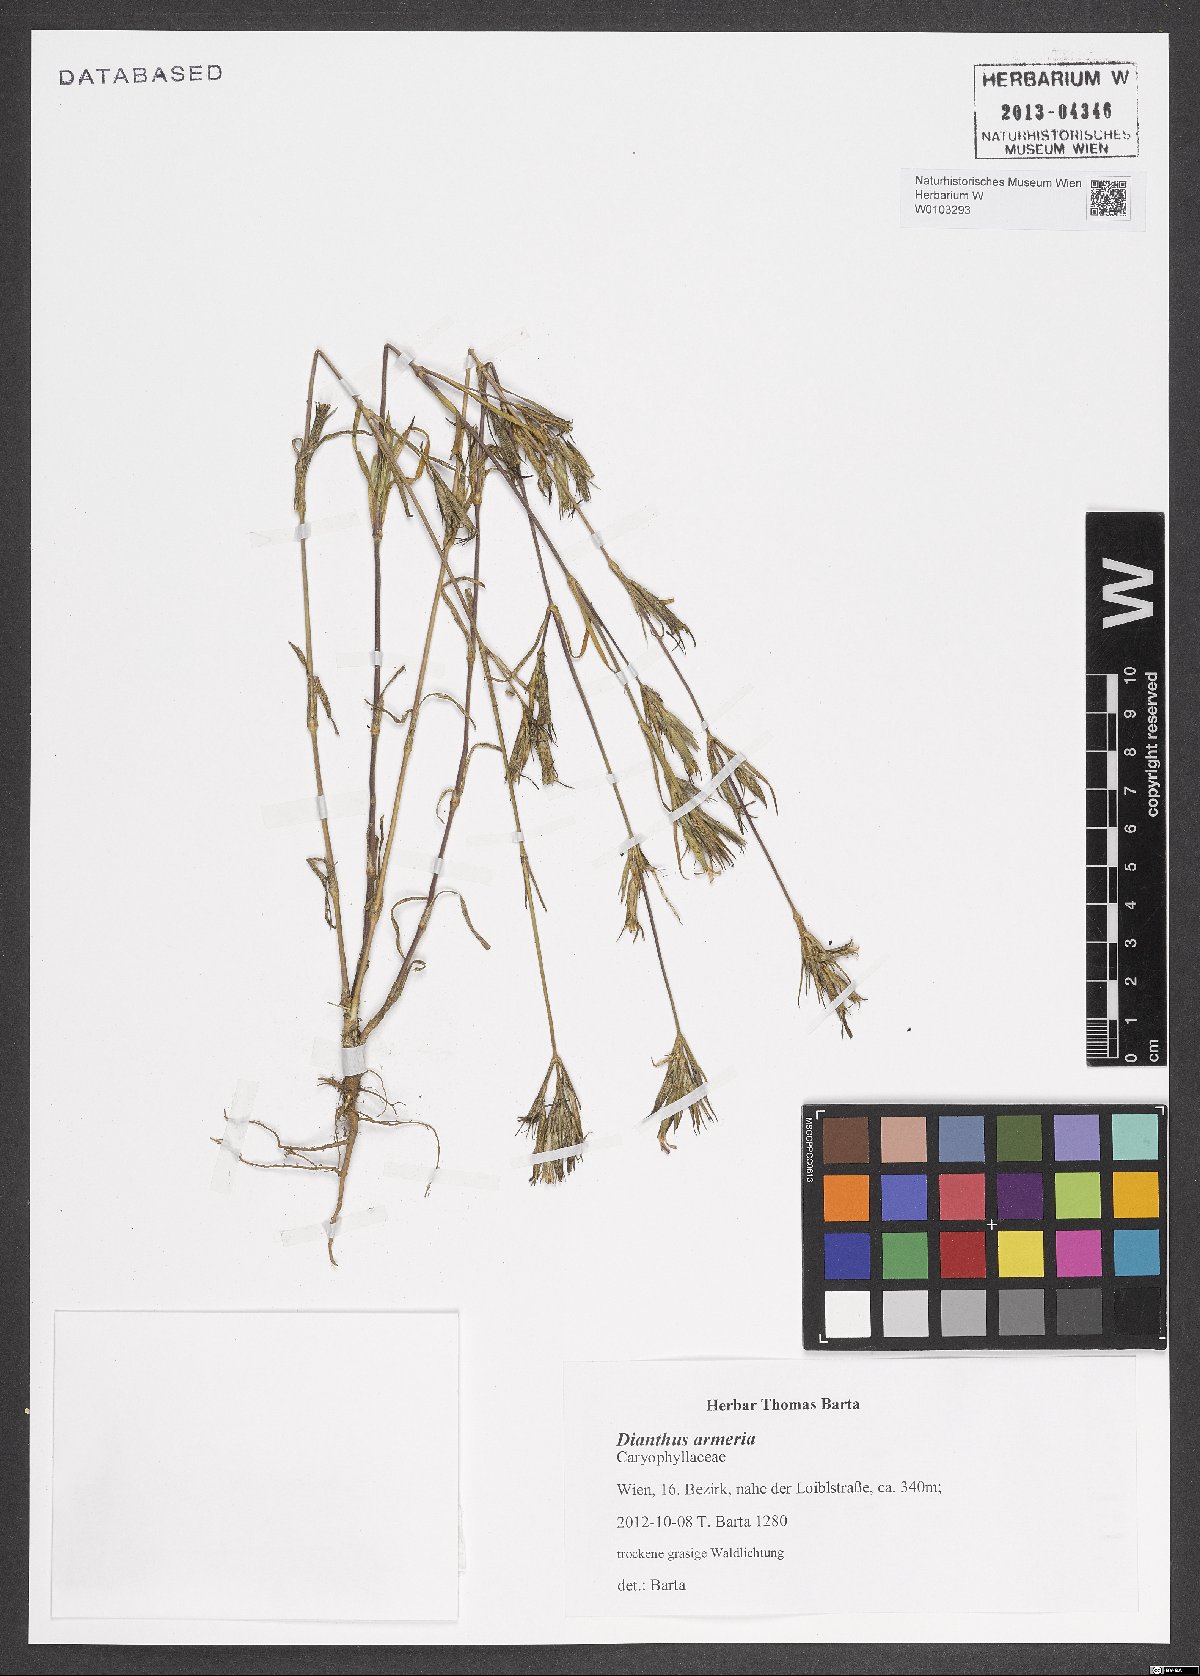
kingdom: Plantae
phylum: Tracheophyta
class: Magnoliopsida
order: Caryophyllales
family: Caryophyllaceae
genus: Dianthus
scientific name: Dianthus armeria
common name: Deptford pink
